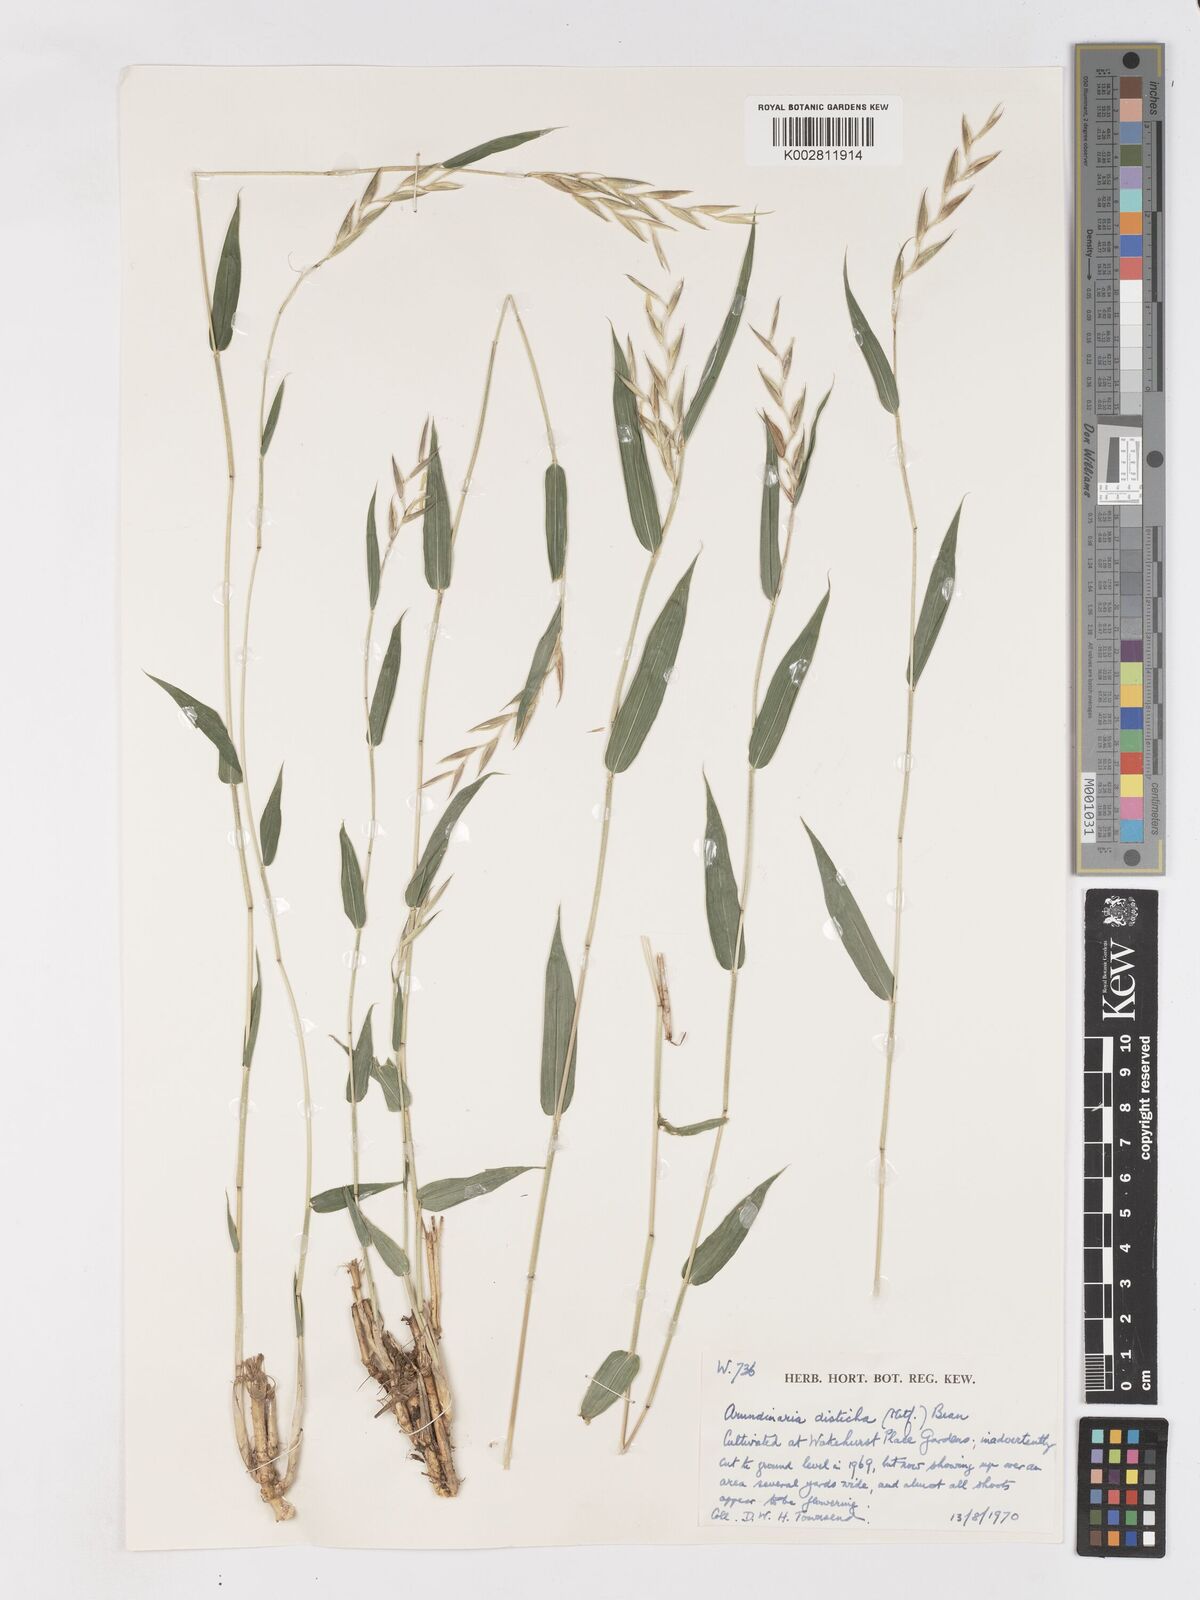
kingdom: Plantae
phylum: Tracheophyta
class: Liliopsida
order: Poales
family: Poaceae
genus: Pleioblastus
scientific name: Pleioblastus distichus
